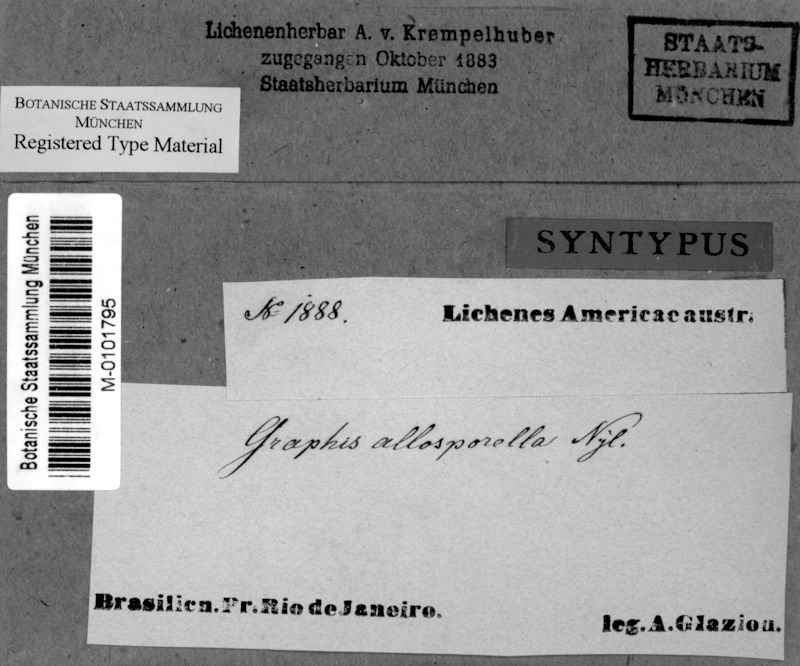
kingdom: Fungi
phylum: Ascomycota
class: Lecanoromycetes
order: Ostropales
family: Graphidaceae
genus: Platythecium
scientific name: Platythecium allosporellum
